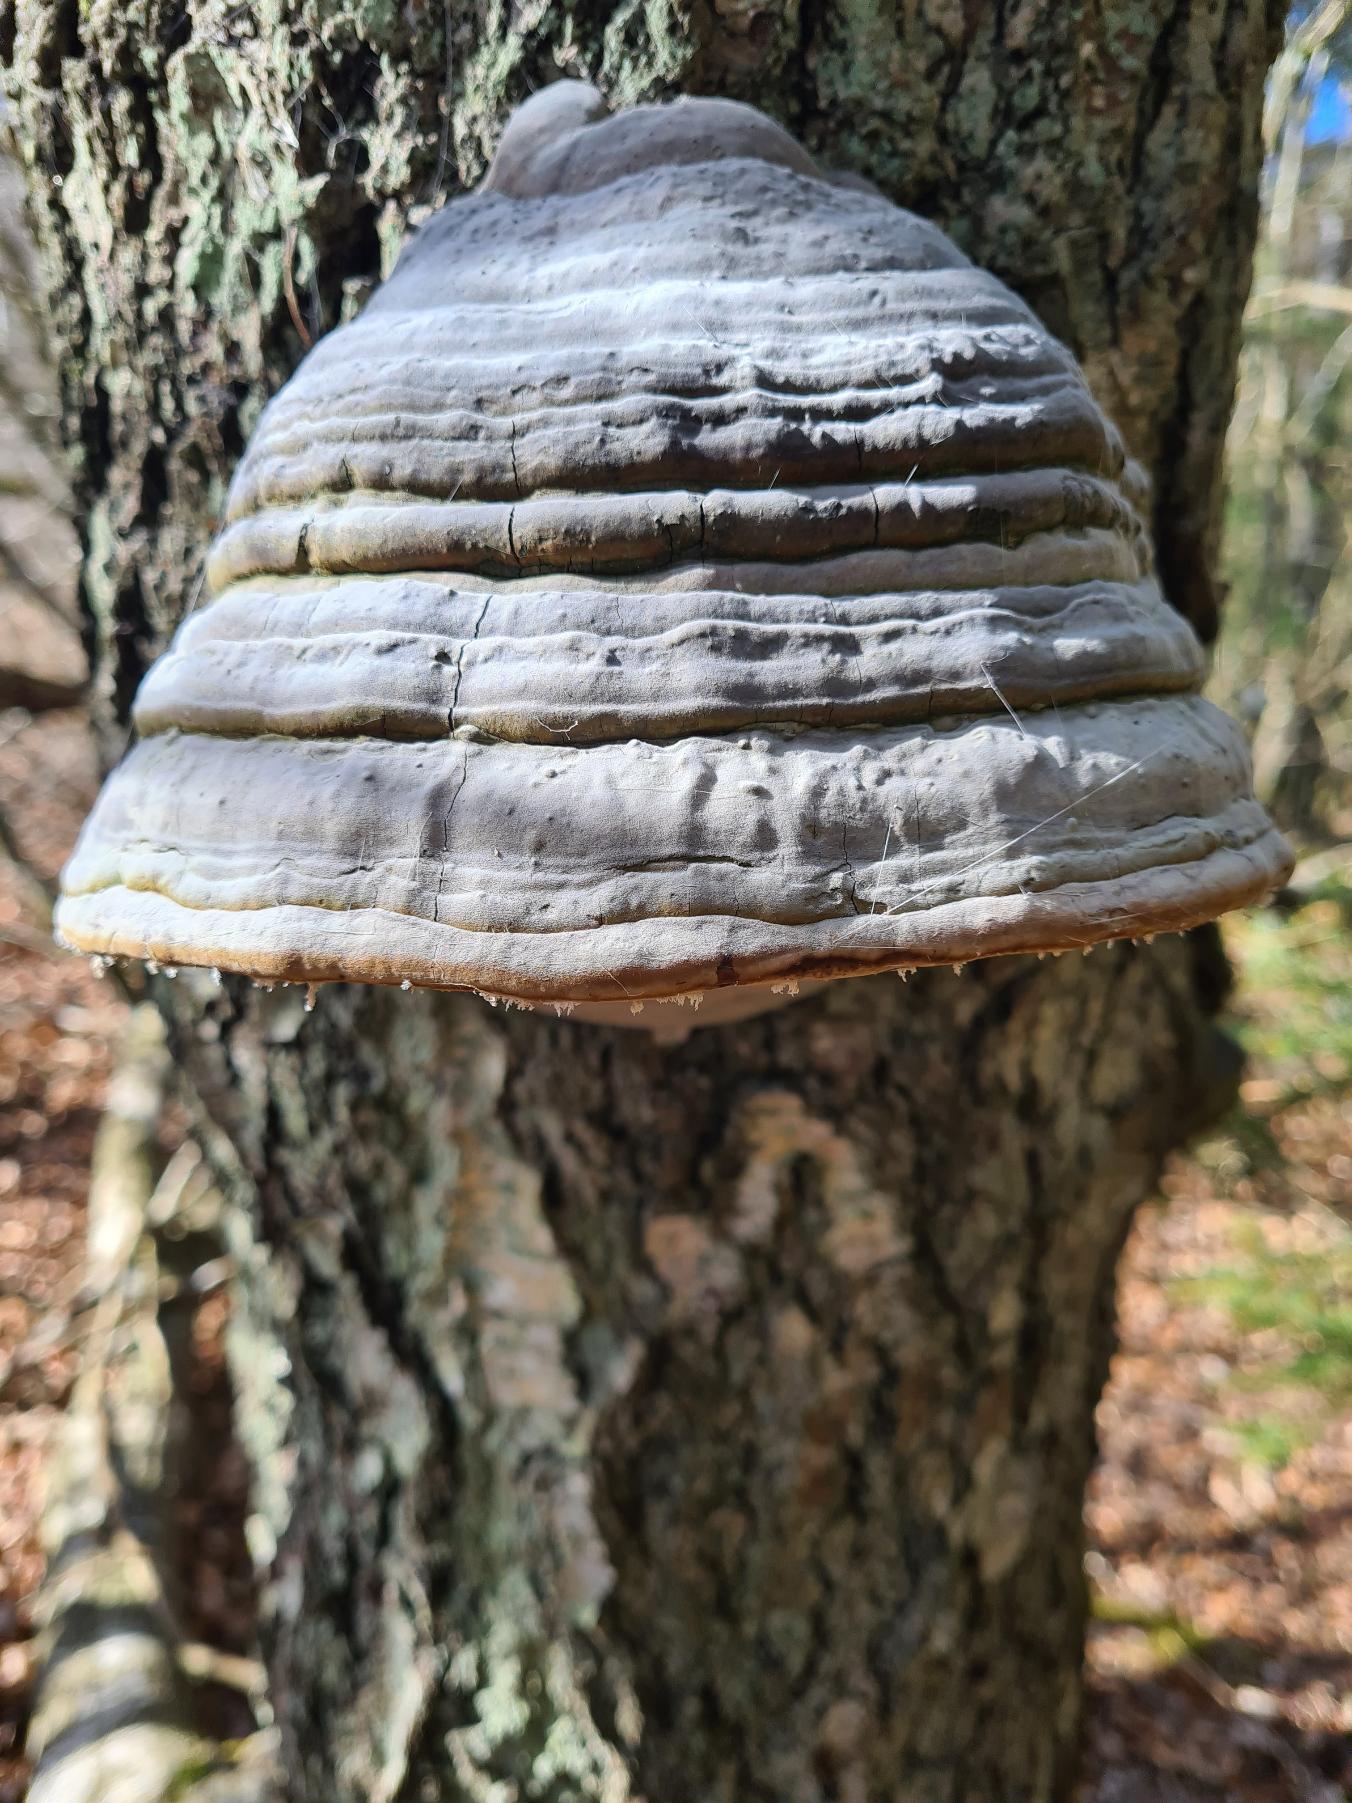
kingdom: Fungi
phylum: Basidiomycota
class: Agaricomycetes
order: Polyporales
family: Polyporaceae
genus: Fomes
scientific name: Fomes fomentarius
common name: Tøndersvamp
